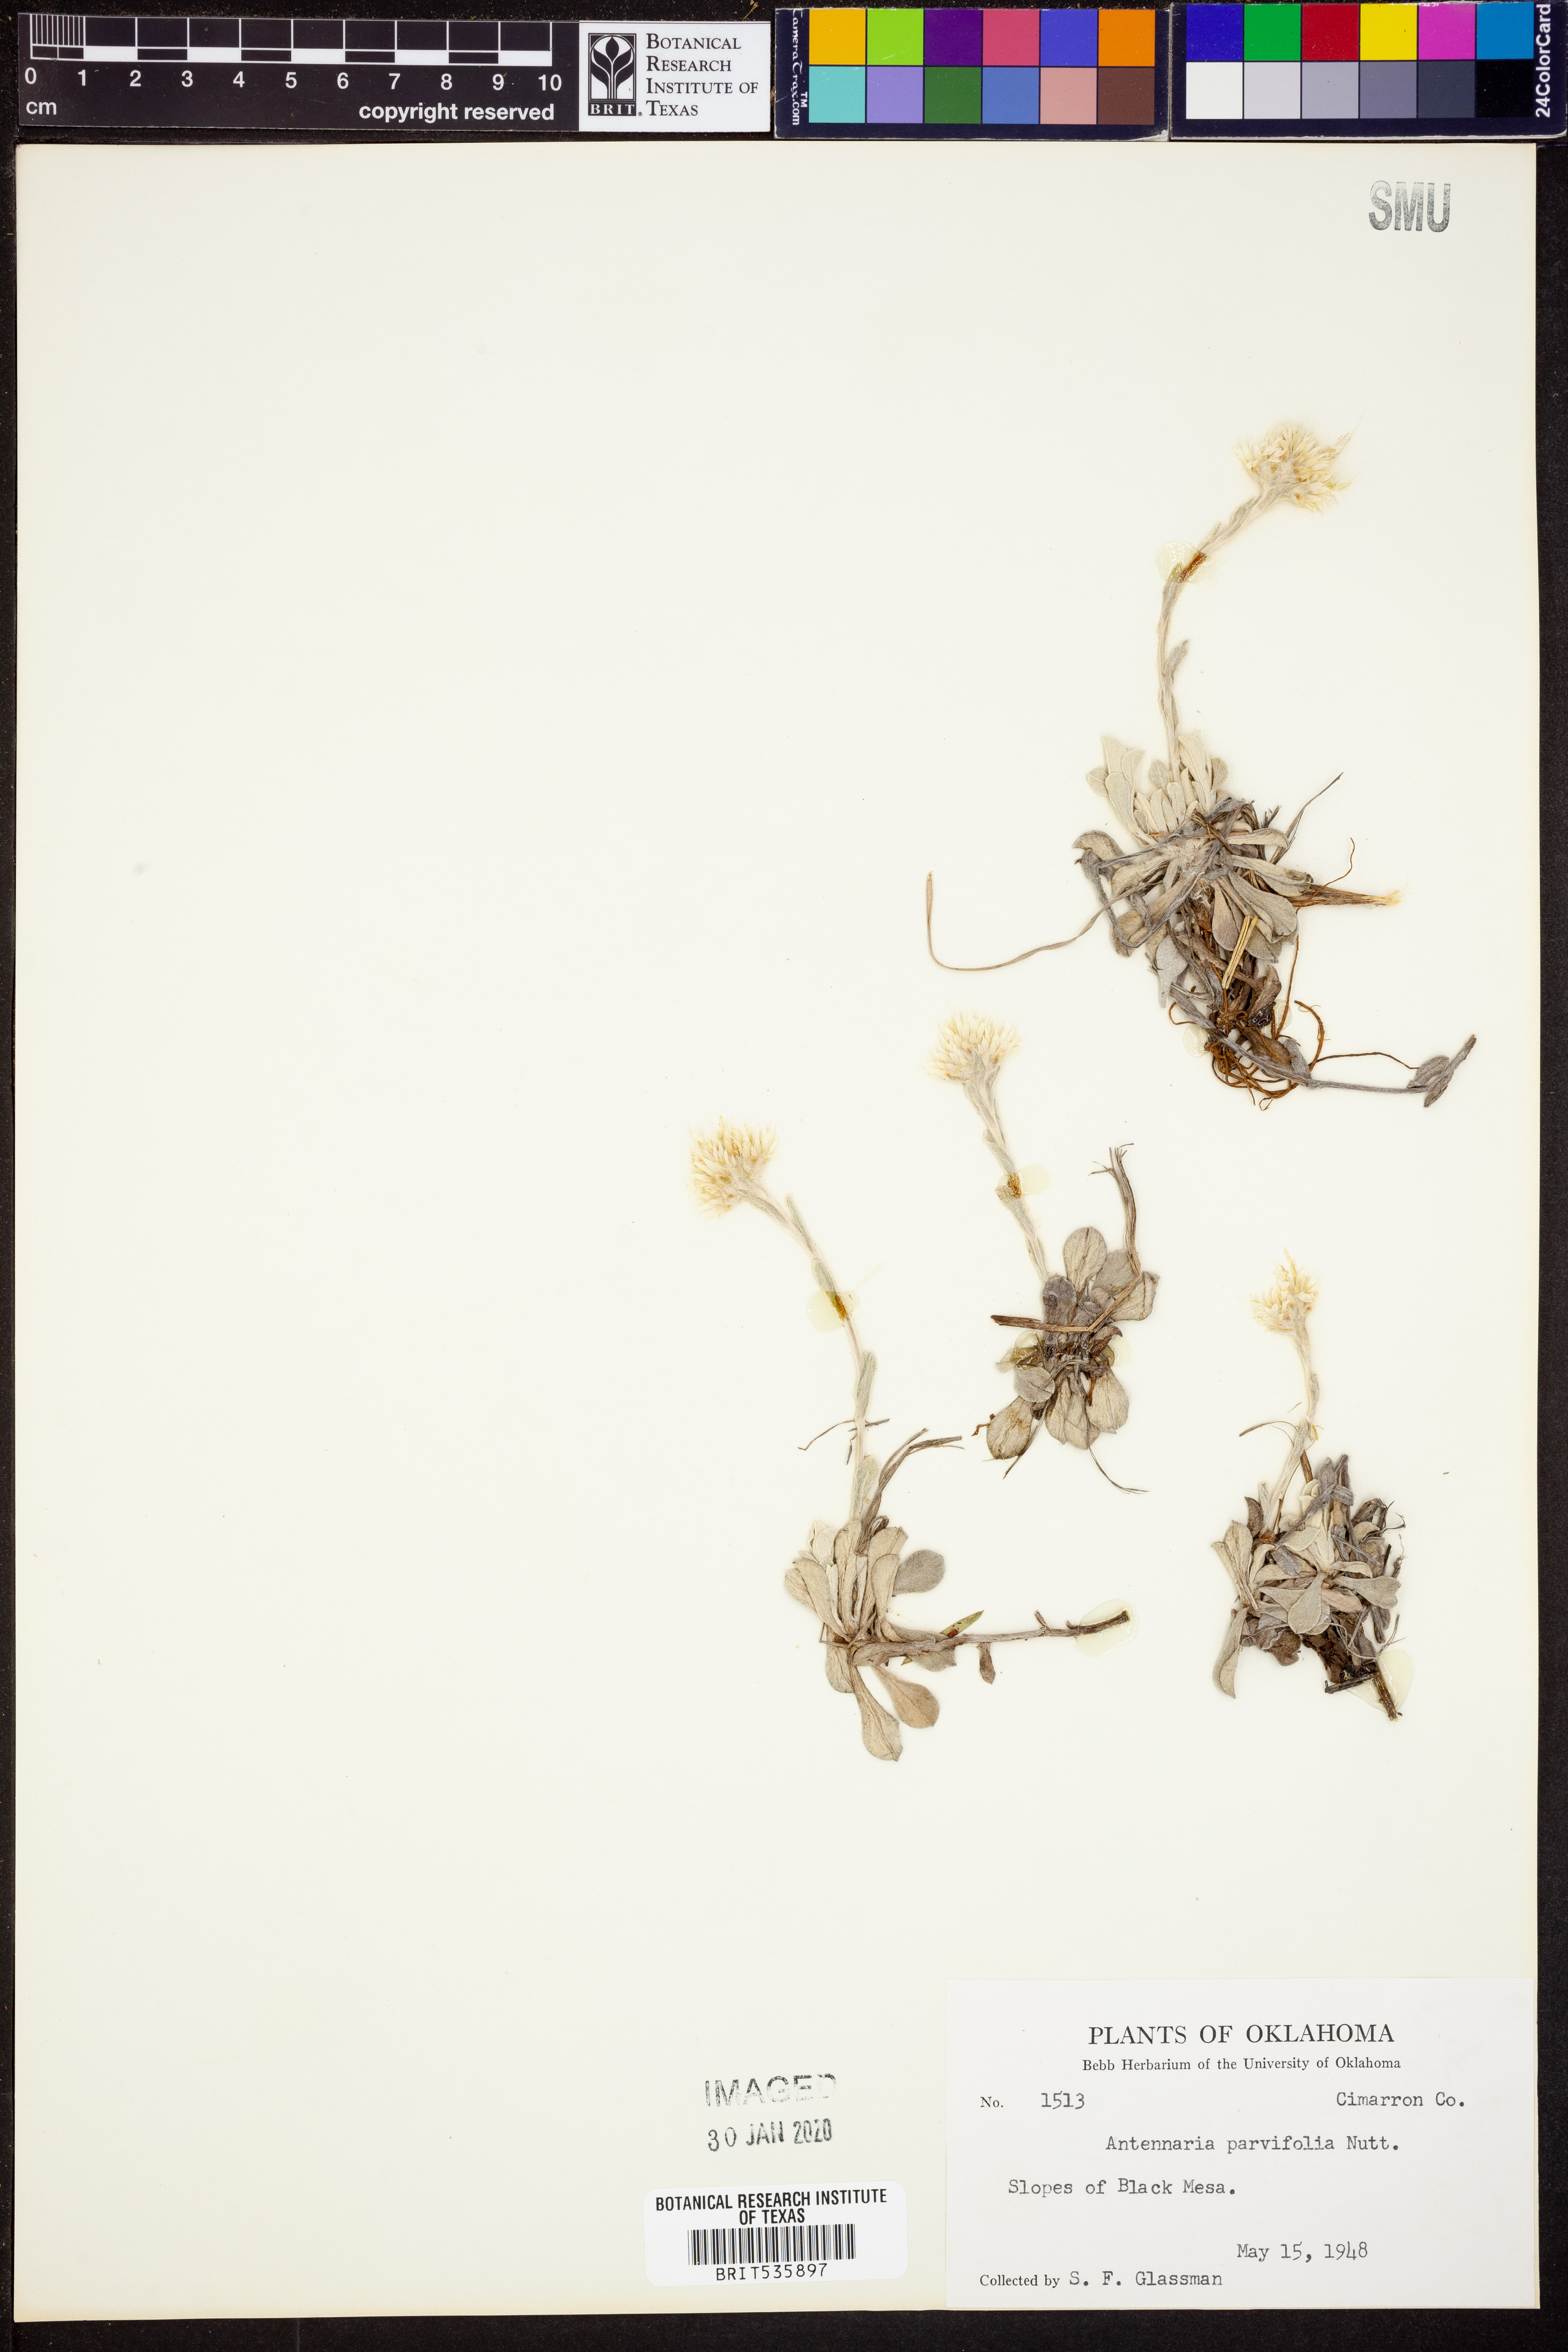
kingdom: Plantae
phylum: Tracheophyta
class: Magnoliopsida
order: Asterales
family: Asteraceae
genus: Antennaria
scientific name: Antennaria parvifolia
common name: Nuttall's pussytoes
